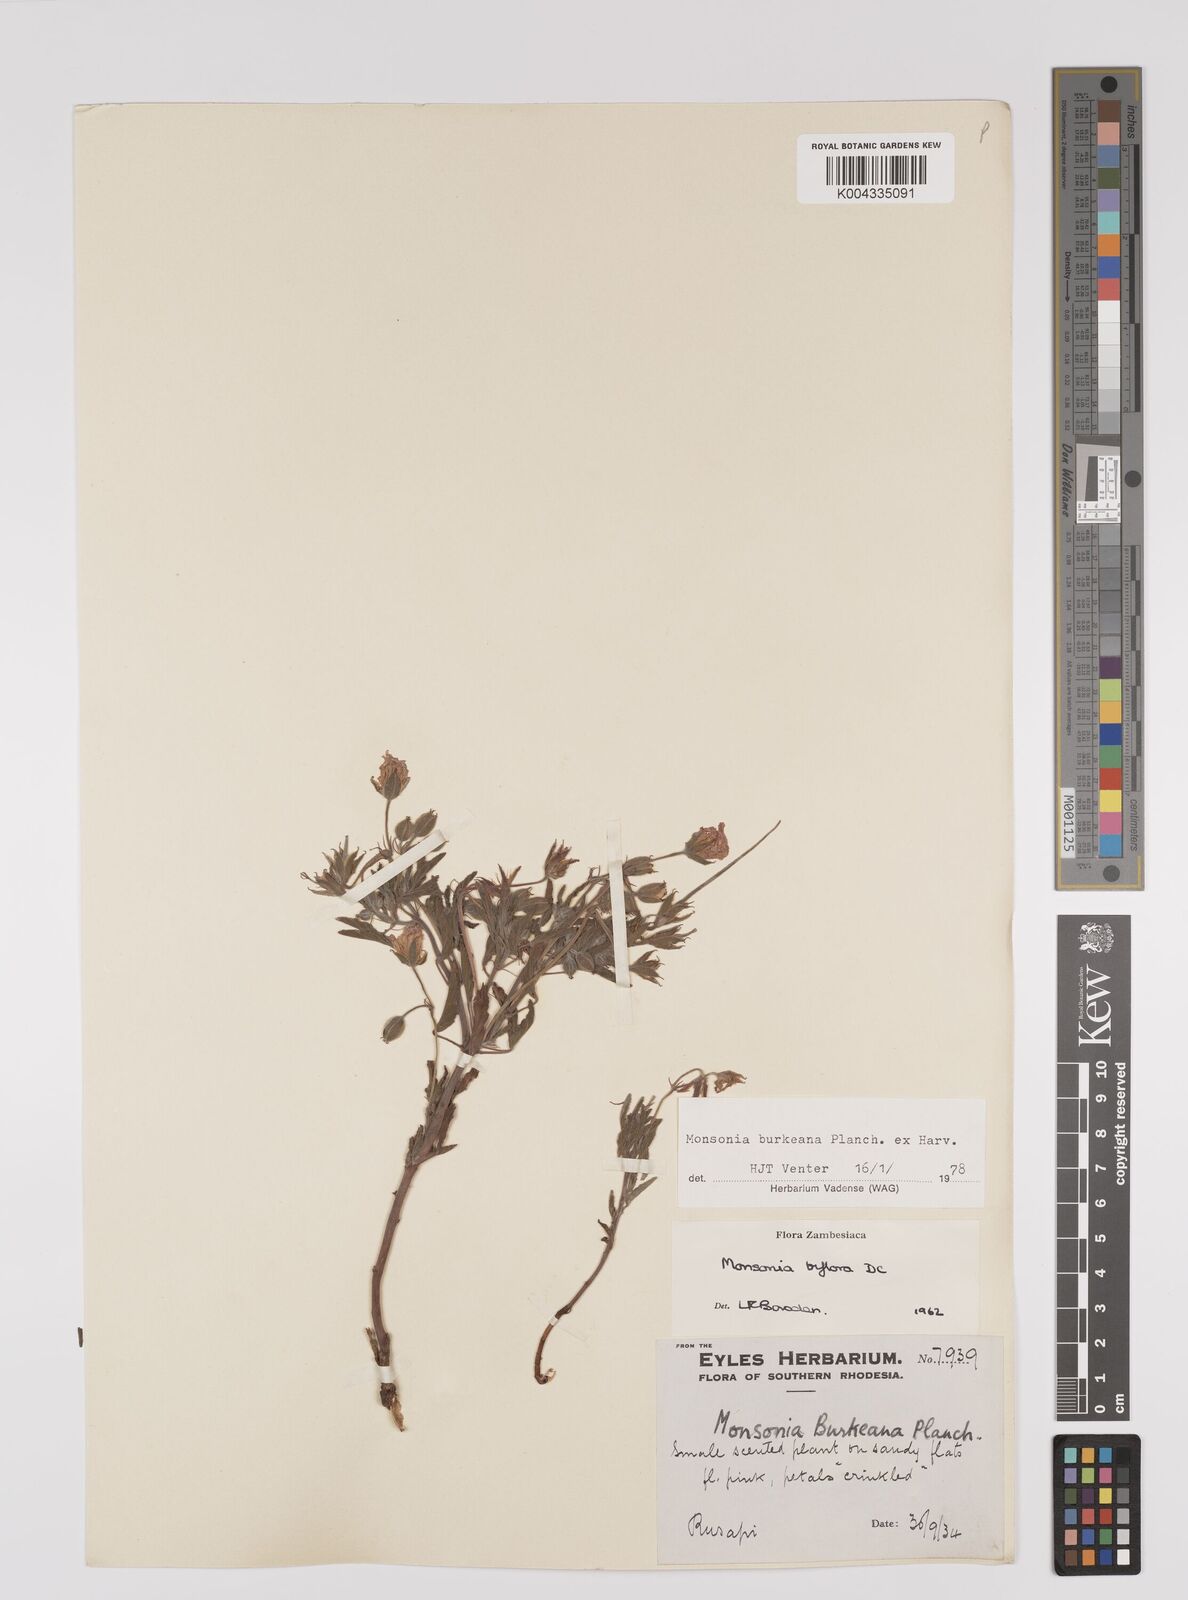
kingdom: Plantae
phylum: Tracheophyta
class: Magnoliopsida
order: Geraniales
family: Geraniaceae
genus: Monsonia
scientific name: Monsonia biflora
